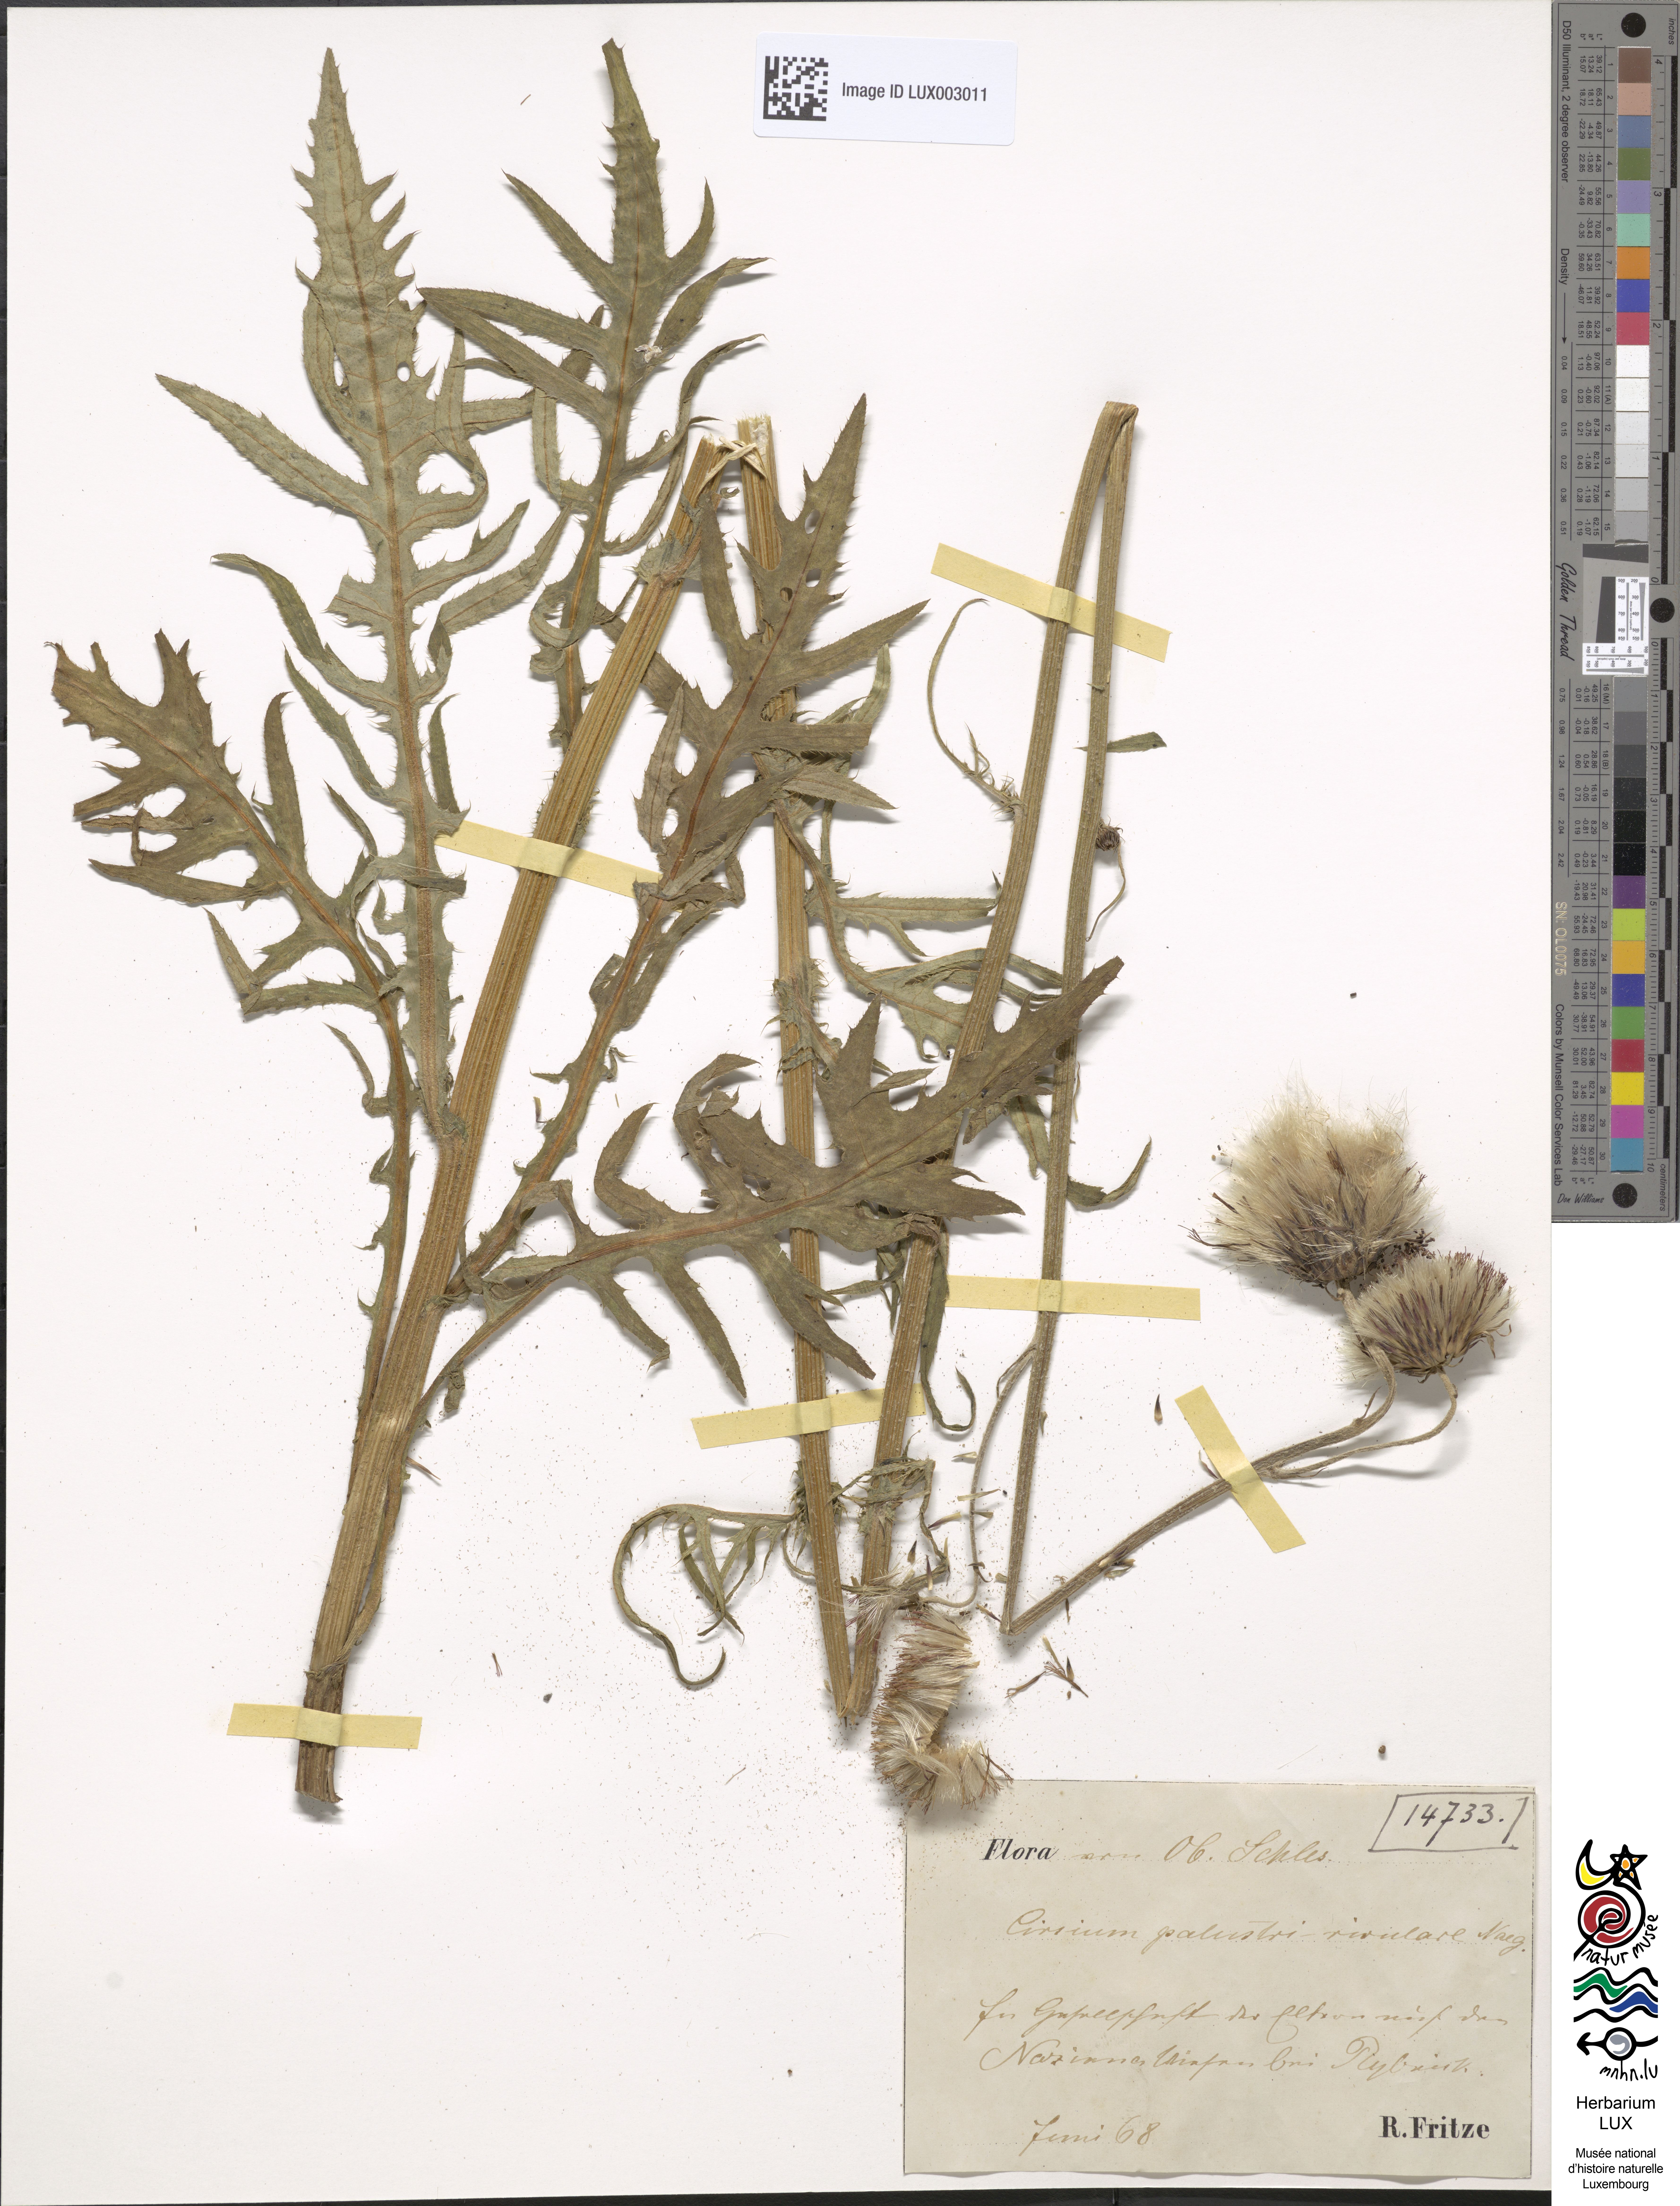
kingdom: Plantae
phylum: Tracheophyta
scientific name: Tracheophyta
